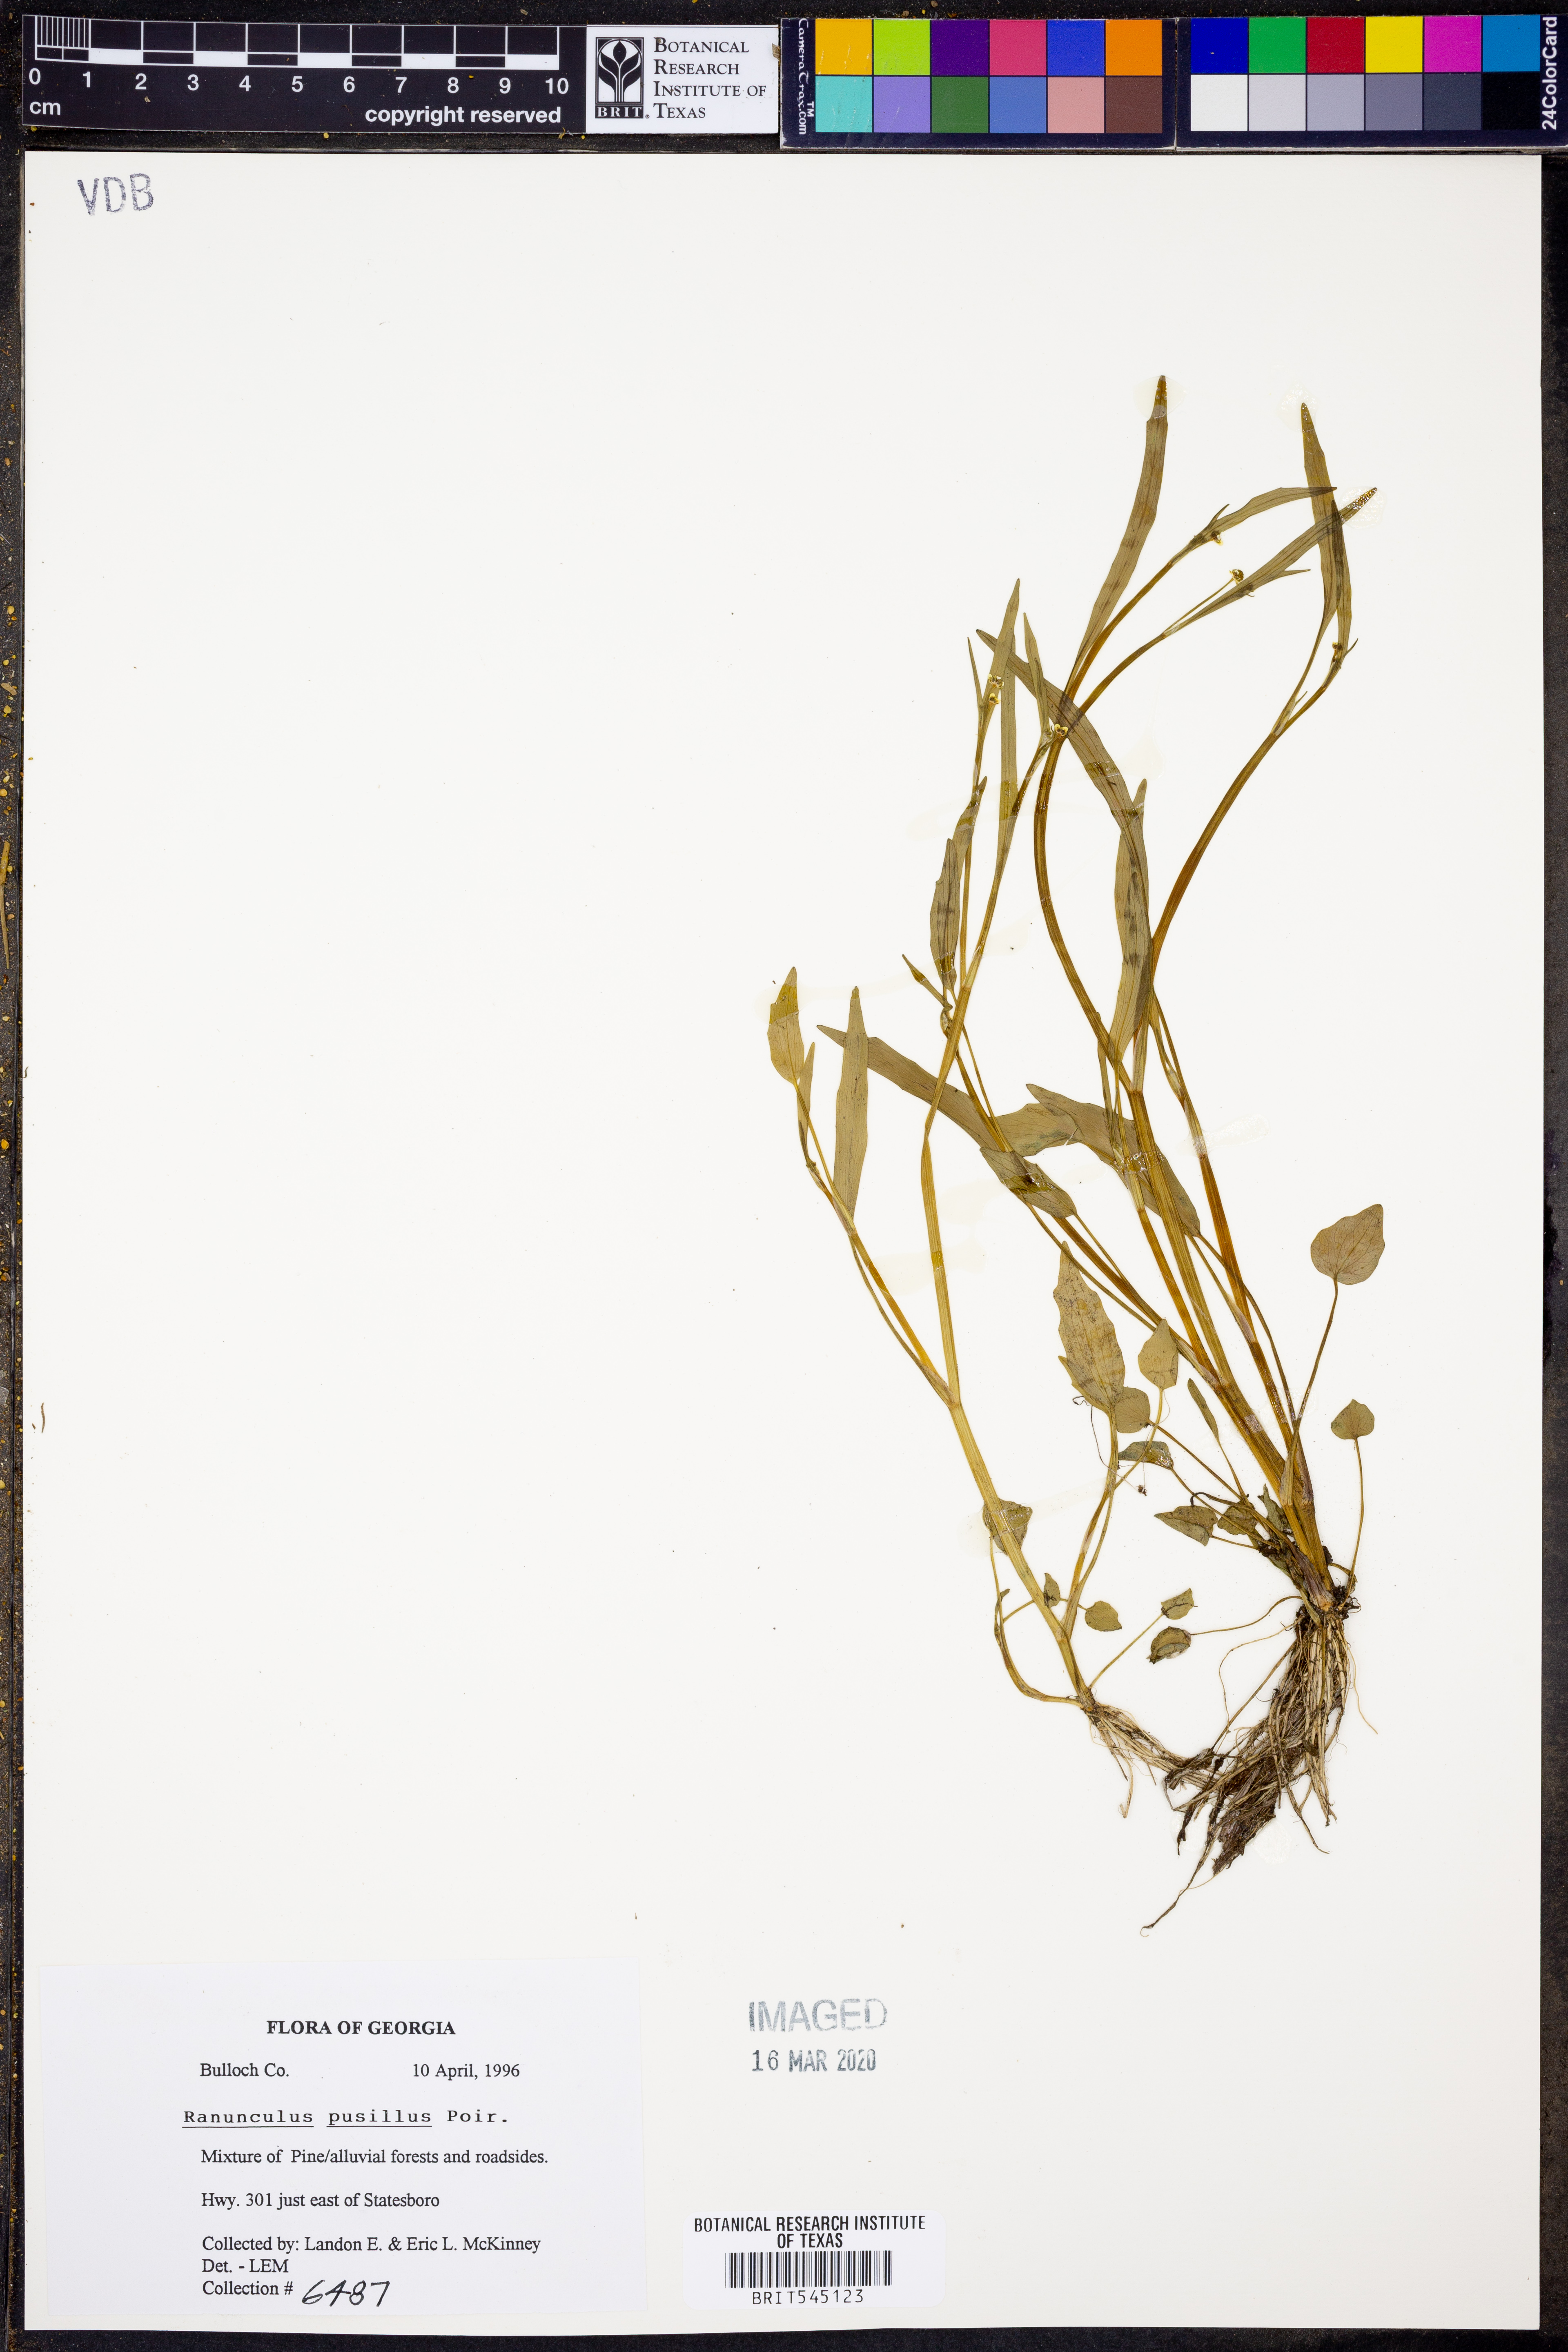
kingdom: Plantae
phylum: Tracheophyta
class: Magnoliopsida
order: Ranunculales
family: Ranunculaceae
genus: Ranunculus
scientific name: Ranunculus pusillus
